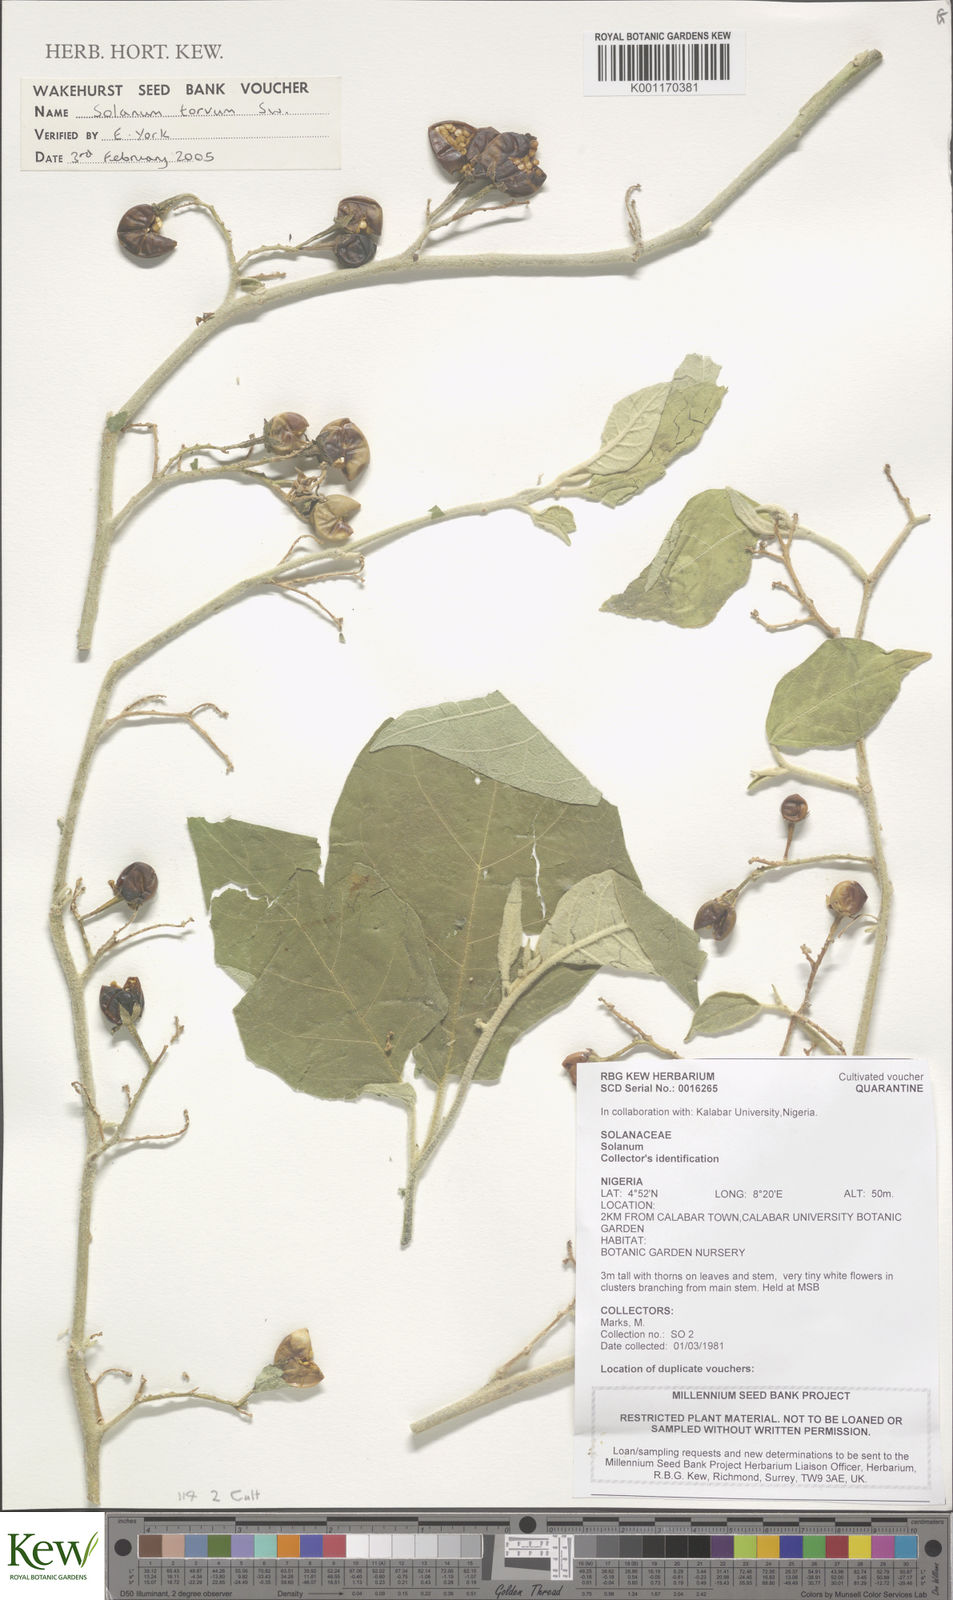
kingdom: Plantae
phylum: Tracheophyta
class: Magnoliopsida
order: Solanales
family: Solanaceae
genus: Solanum
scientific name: Solanum torvum
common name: Turkey berry
